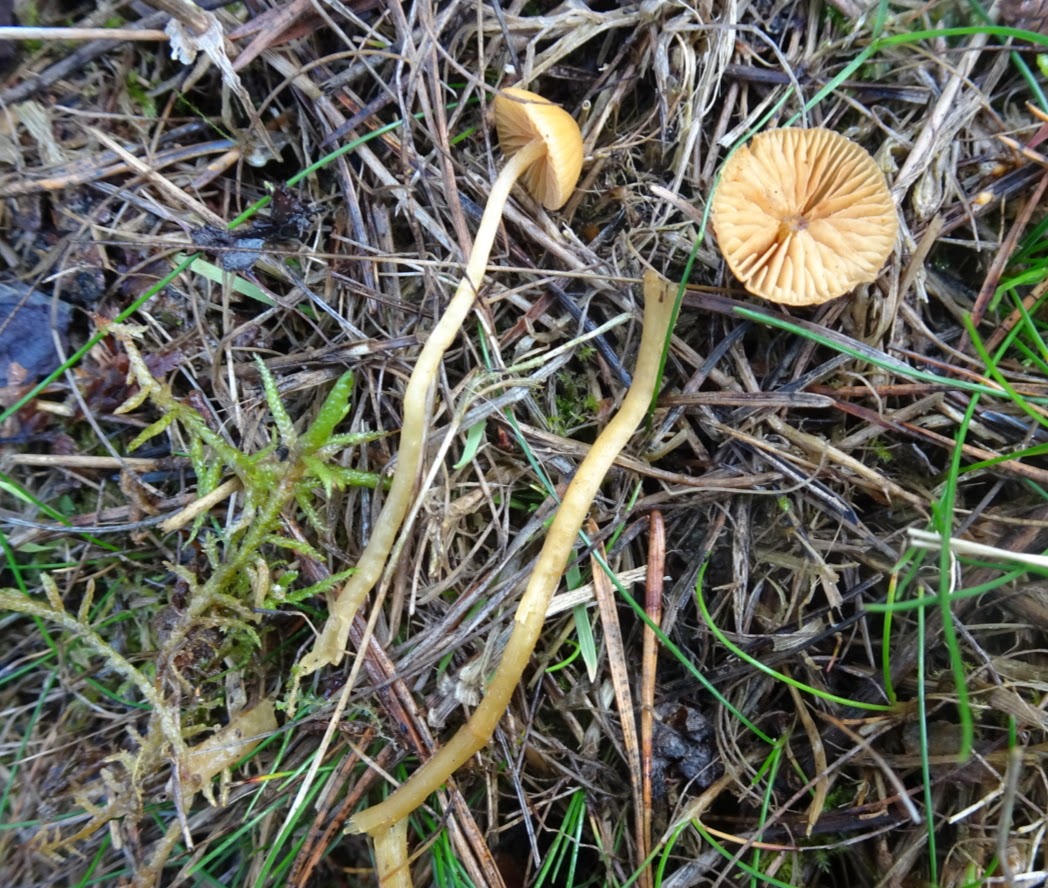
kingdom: Fungi
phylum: Basidiomycota
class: Agaricomycetes
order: Agaricales
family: Hymenogastraceae
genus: Galerina
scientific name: Galerina
